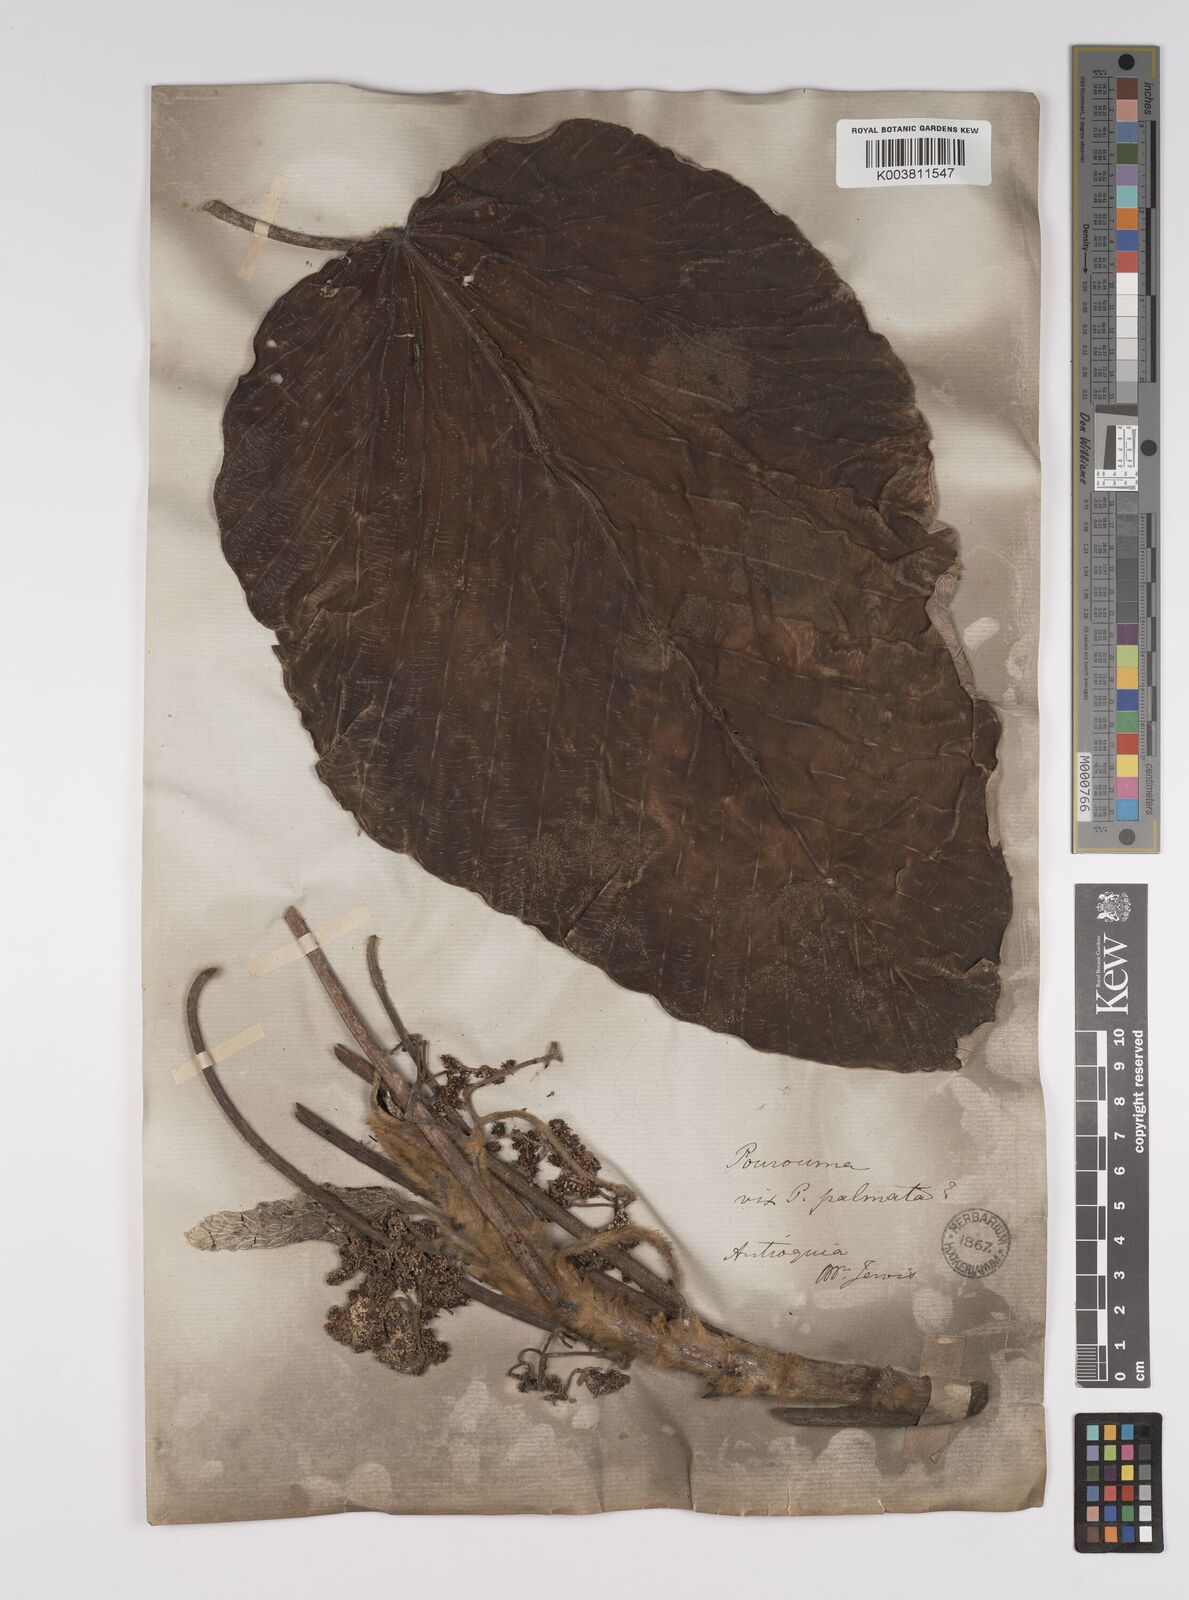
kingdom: Plantae
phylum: Tracheophyta
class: Magnoliopsida
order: Rosales
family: Urticaceae
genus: Pourouma
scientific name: Pourouma
